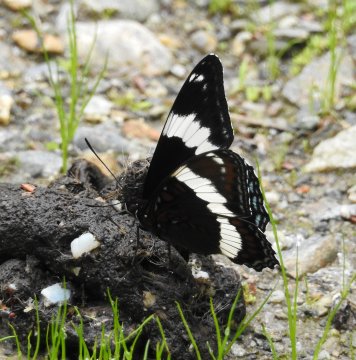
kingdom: Animalia
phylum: Arthropoda
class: Insecta
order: Lepidoptera
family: Nymphalidae
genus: Limenitis
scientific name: Limenitis arthemis
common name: Red-spotted Admiral
